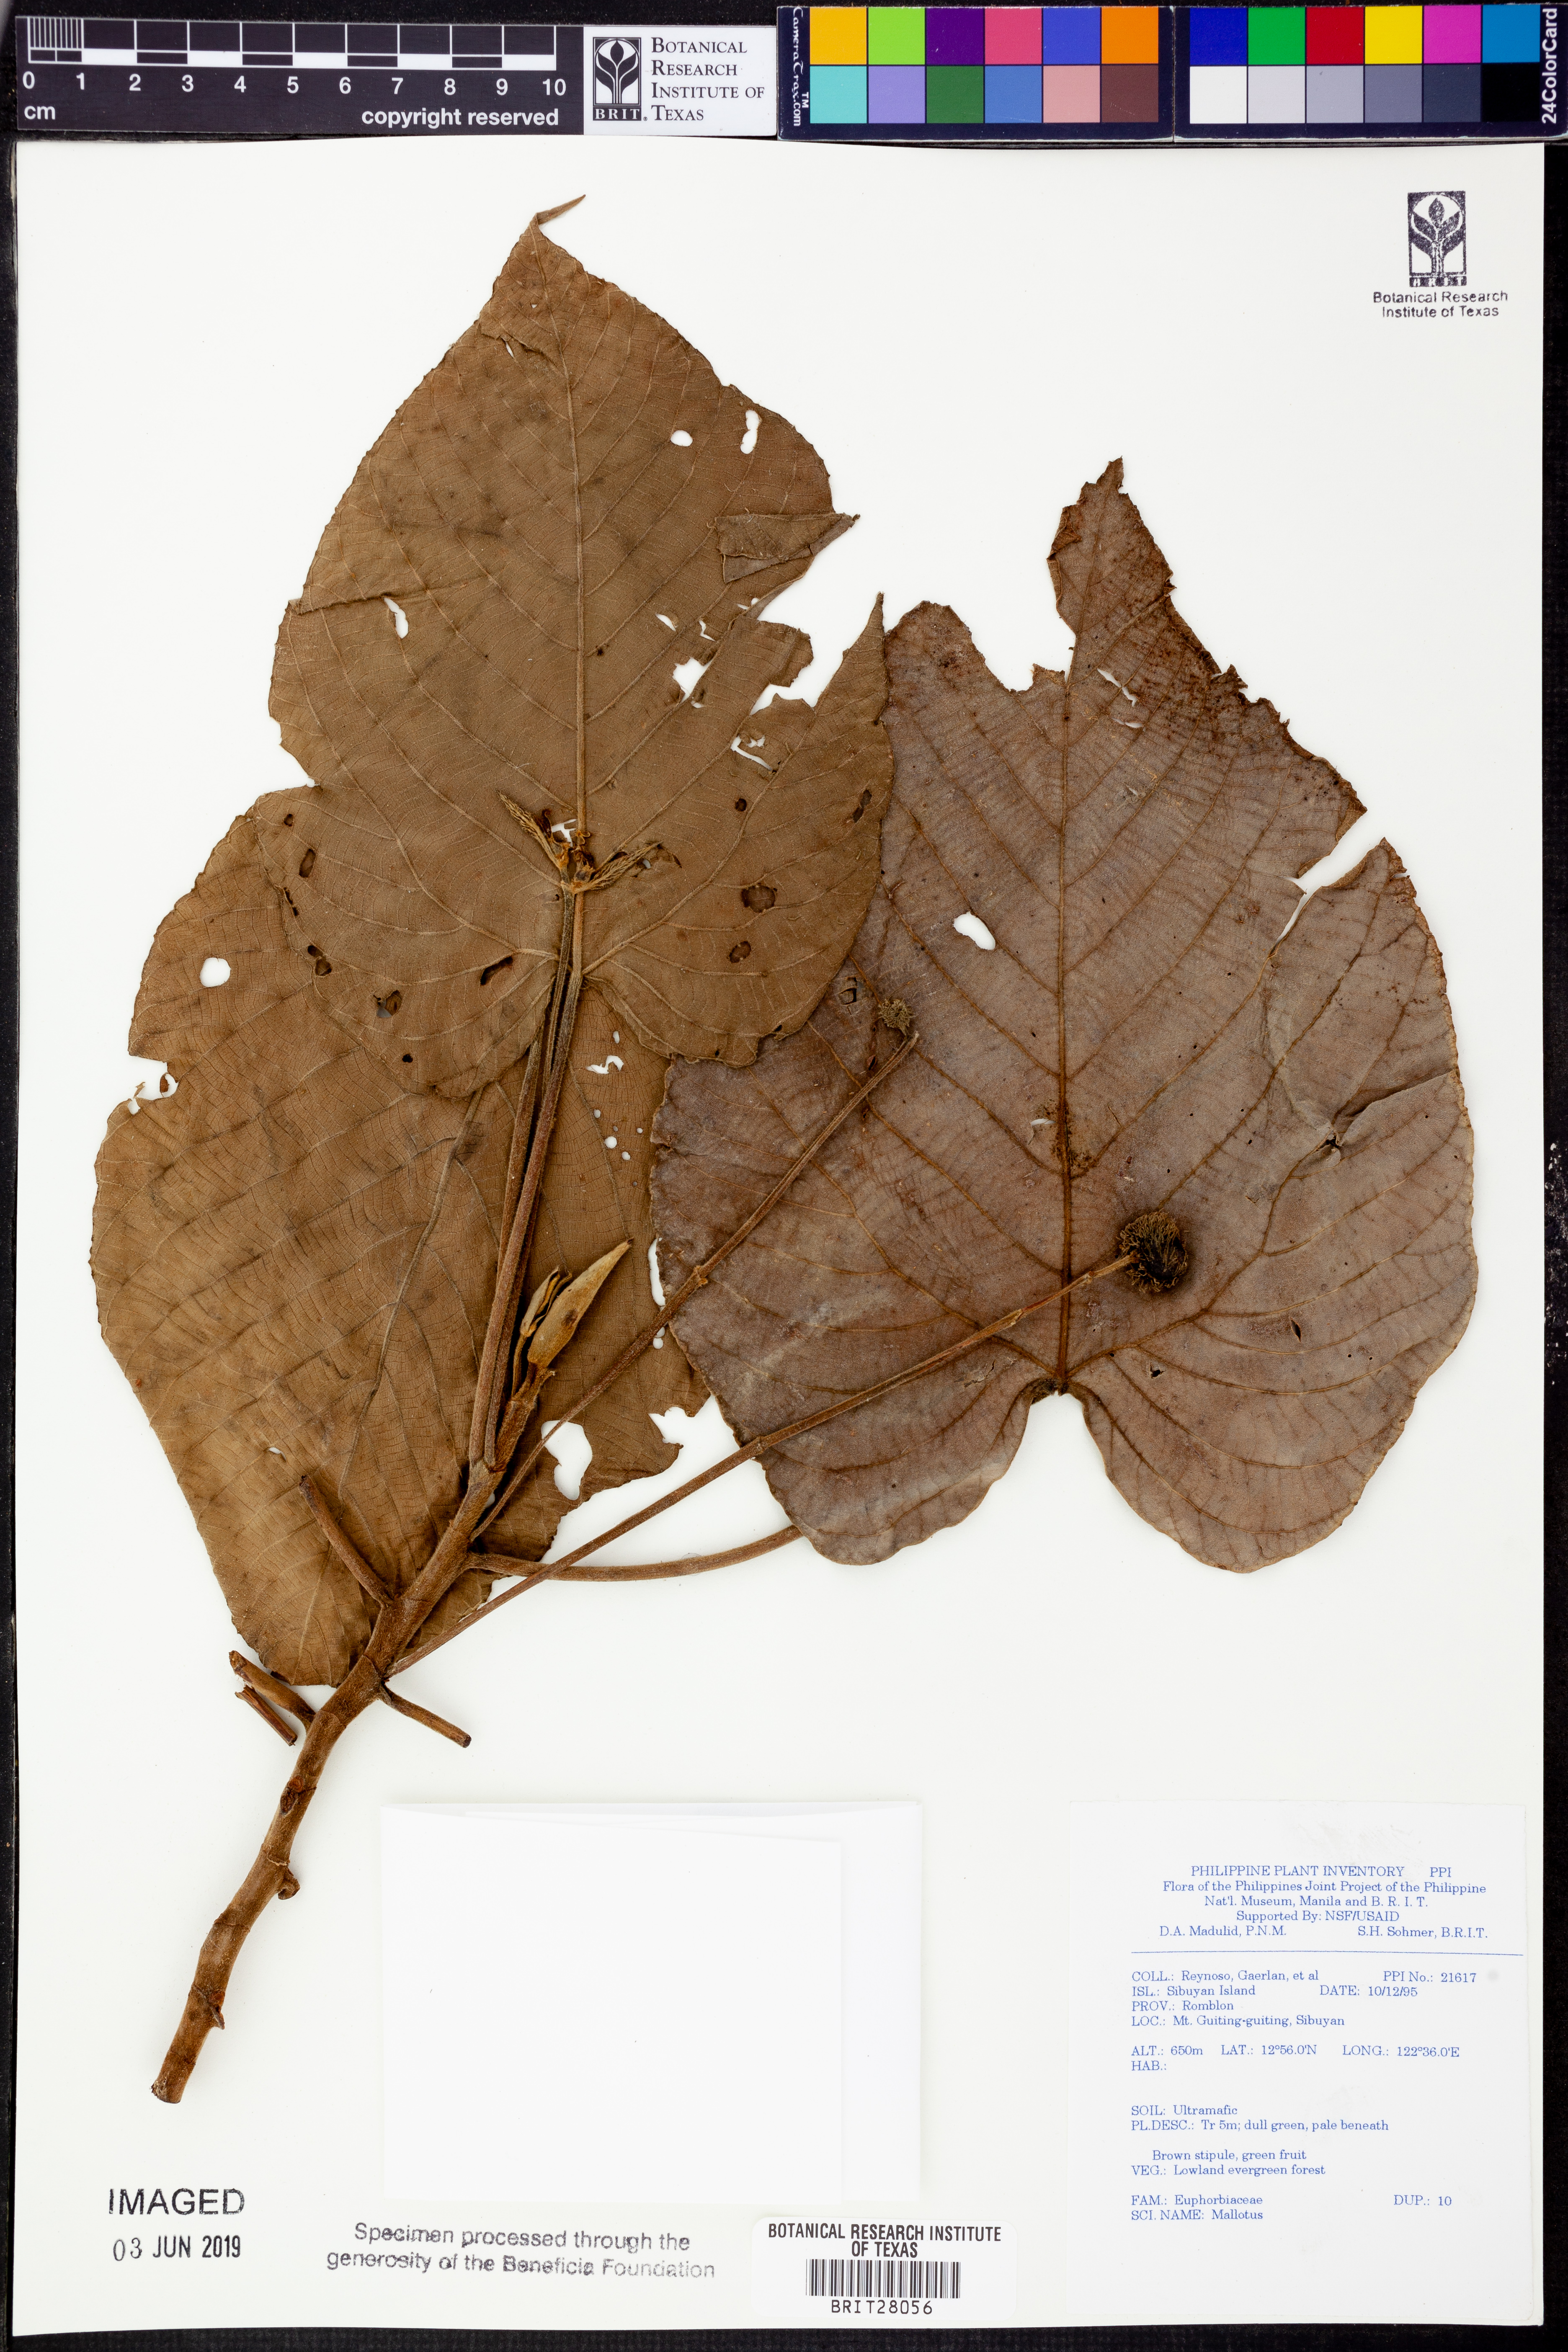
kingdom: Plantae
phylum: Tracheophyta
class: Magnoliopsida
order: Malpighiales
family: Euphorbiaceae
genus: Mallotus
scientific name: Mallotus
